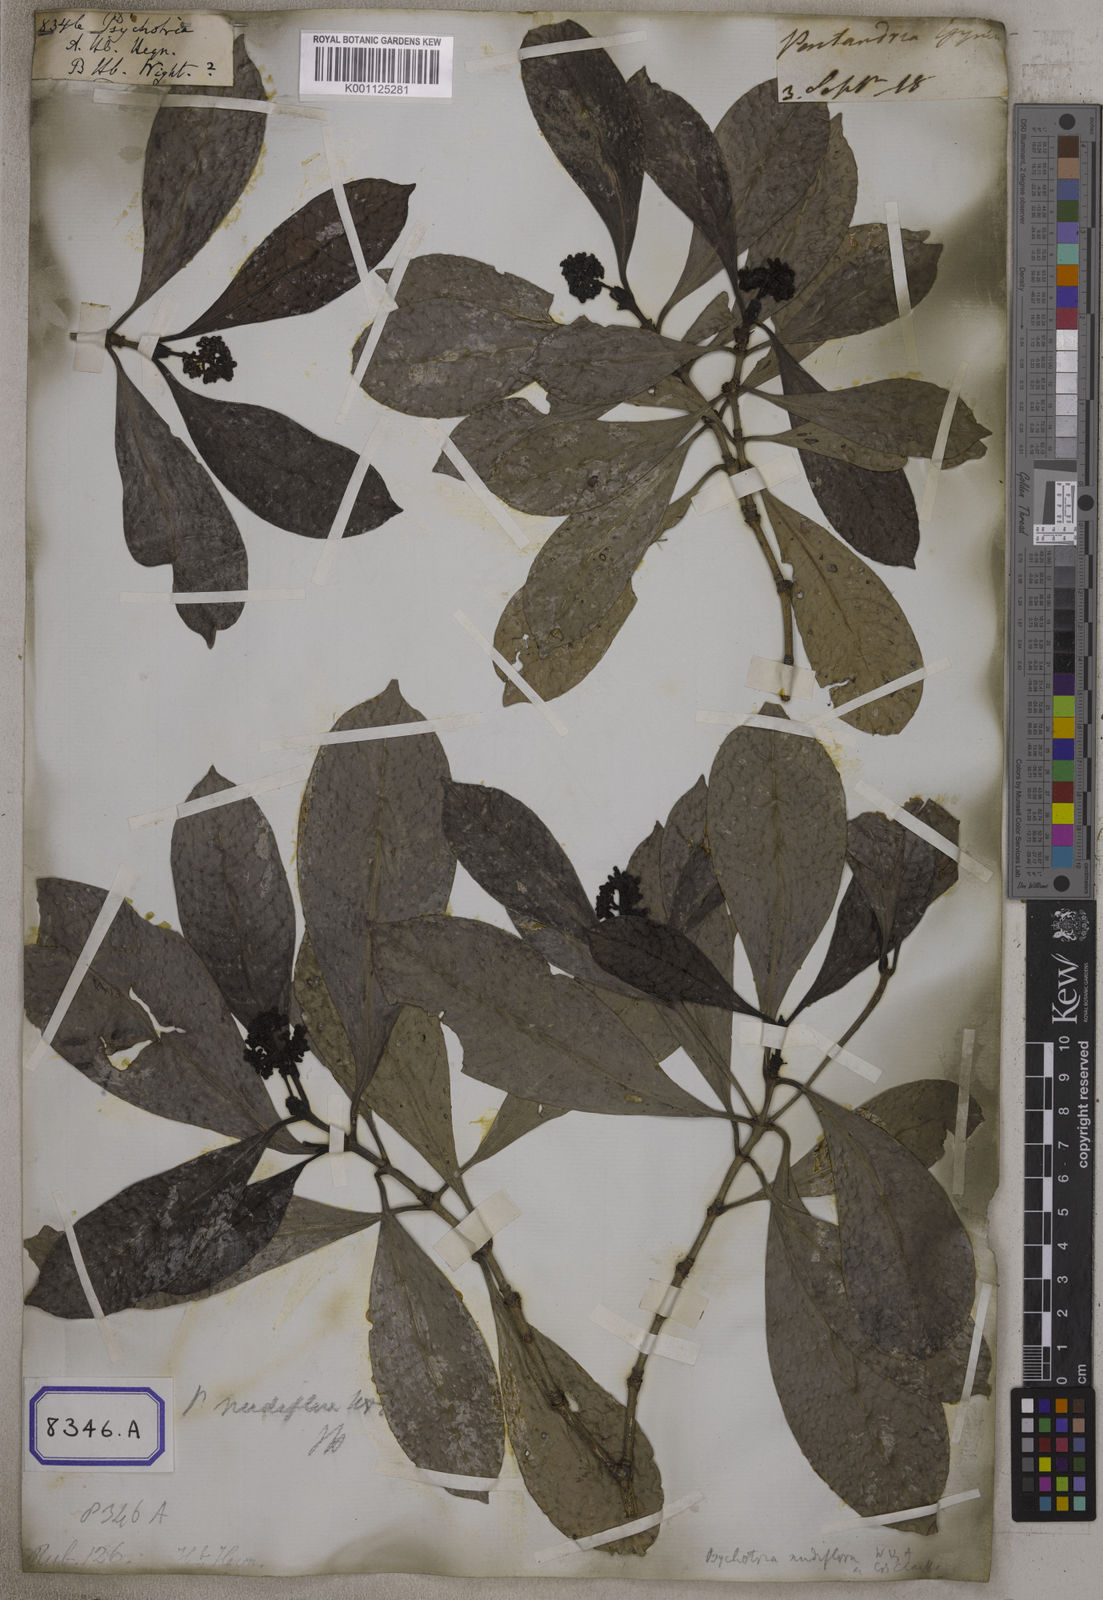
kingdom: Plantae
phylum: Tracheophyta
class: Magnoliopsida
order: Gentianales
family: Rubiaceae
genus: Psychotria
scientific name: Psychotria
